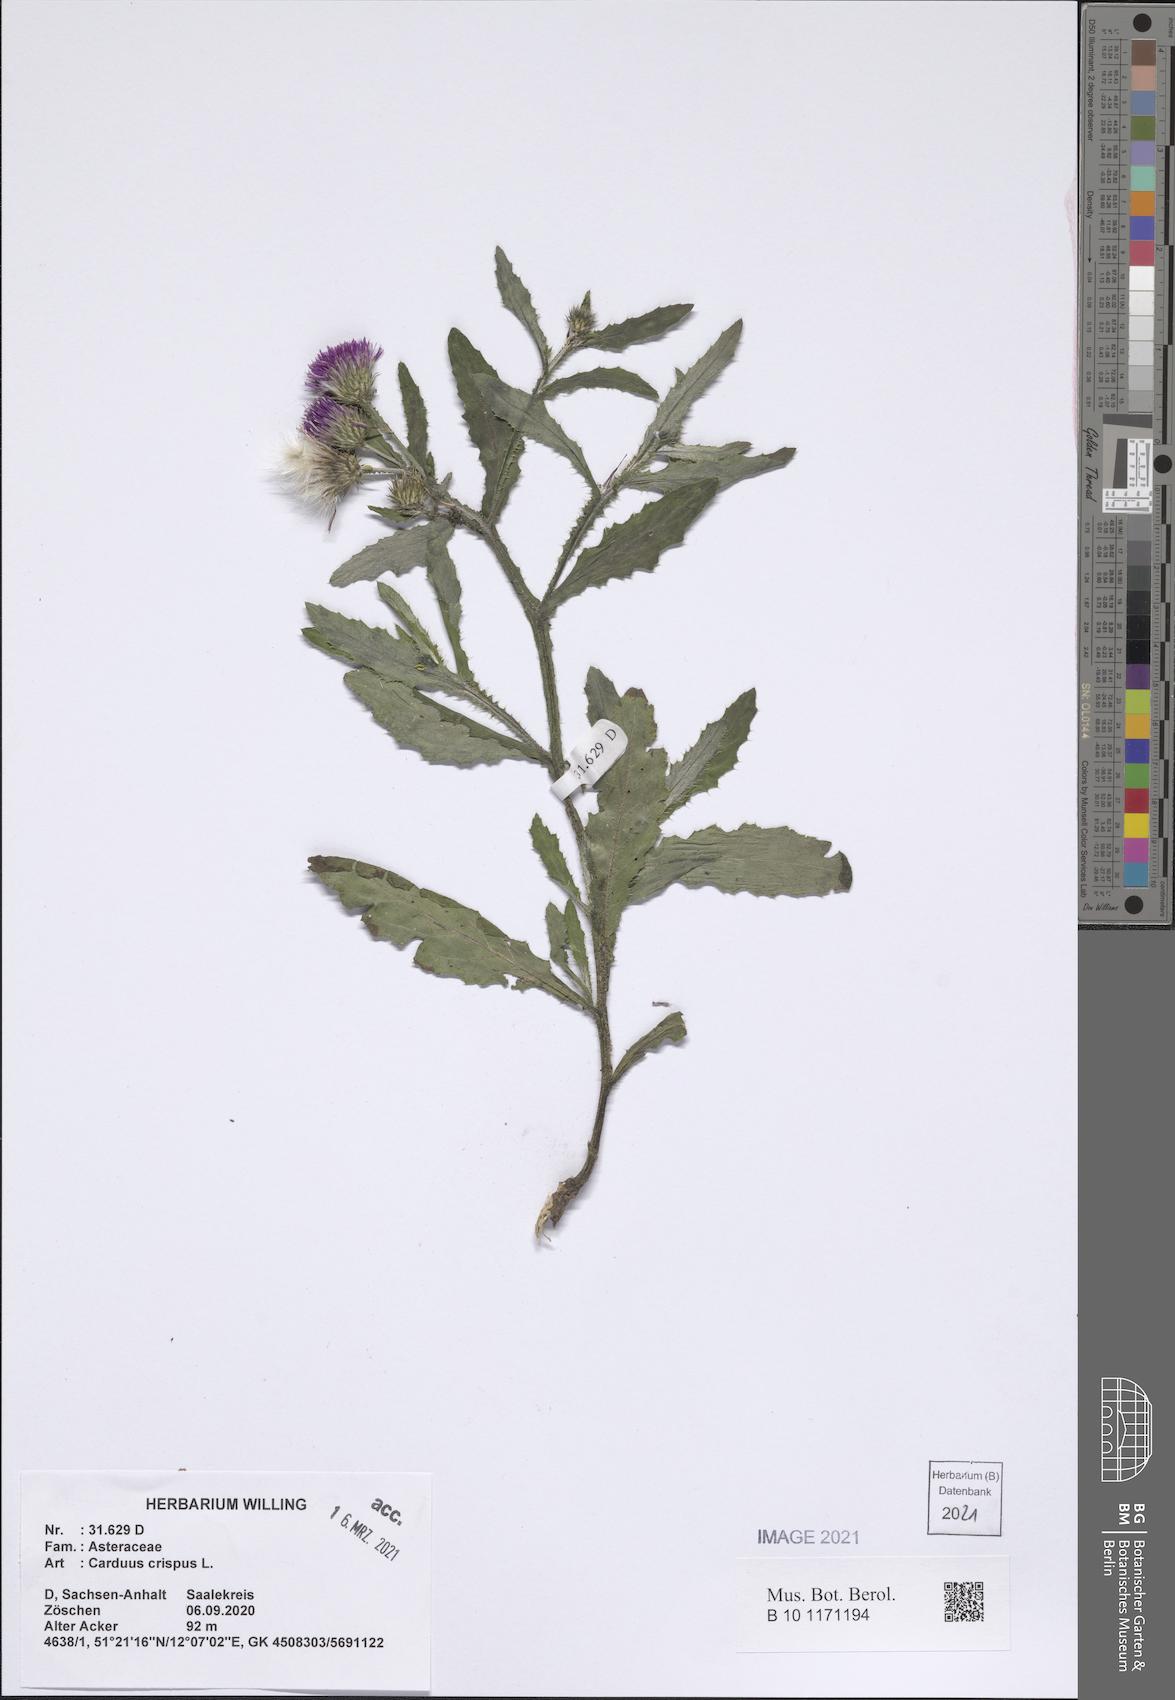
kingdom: Plantae
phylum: Tracheophyta
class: Magnoliopsida
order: Asterales
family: Asteraceae
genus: Carduus
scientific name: Carduus crispus
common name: Welted thistle
